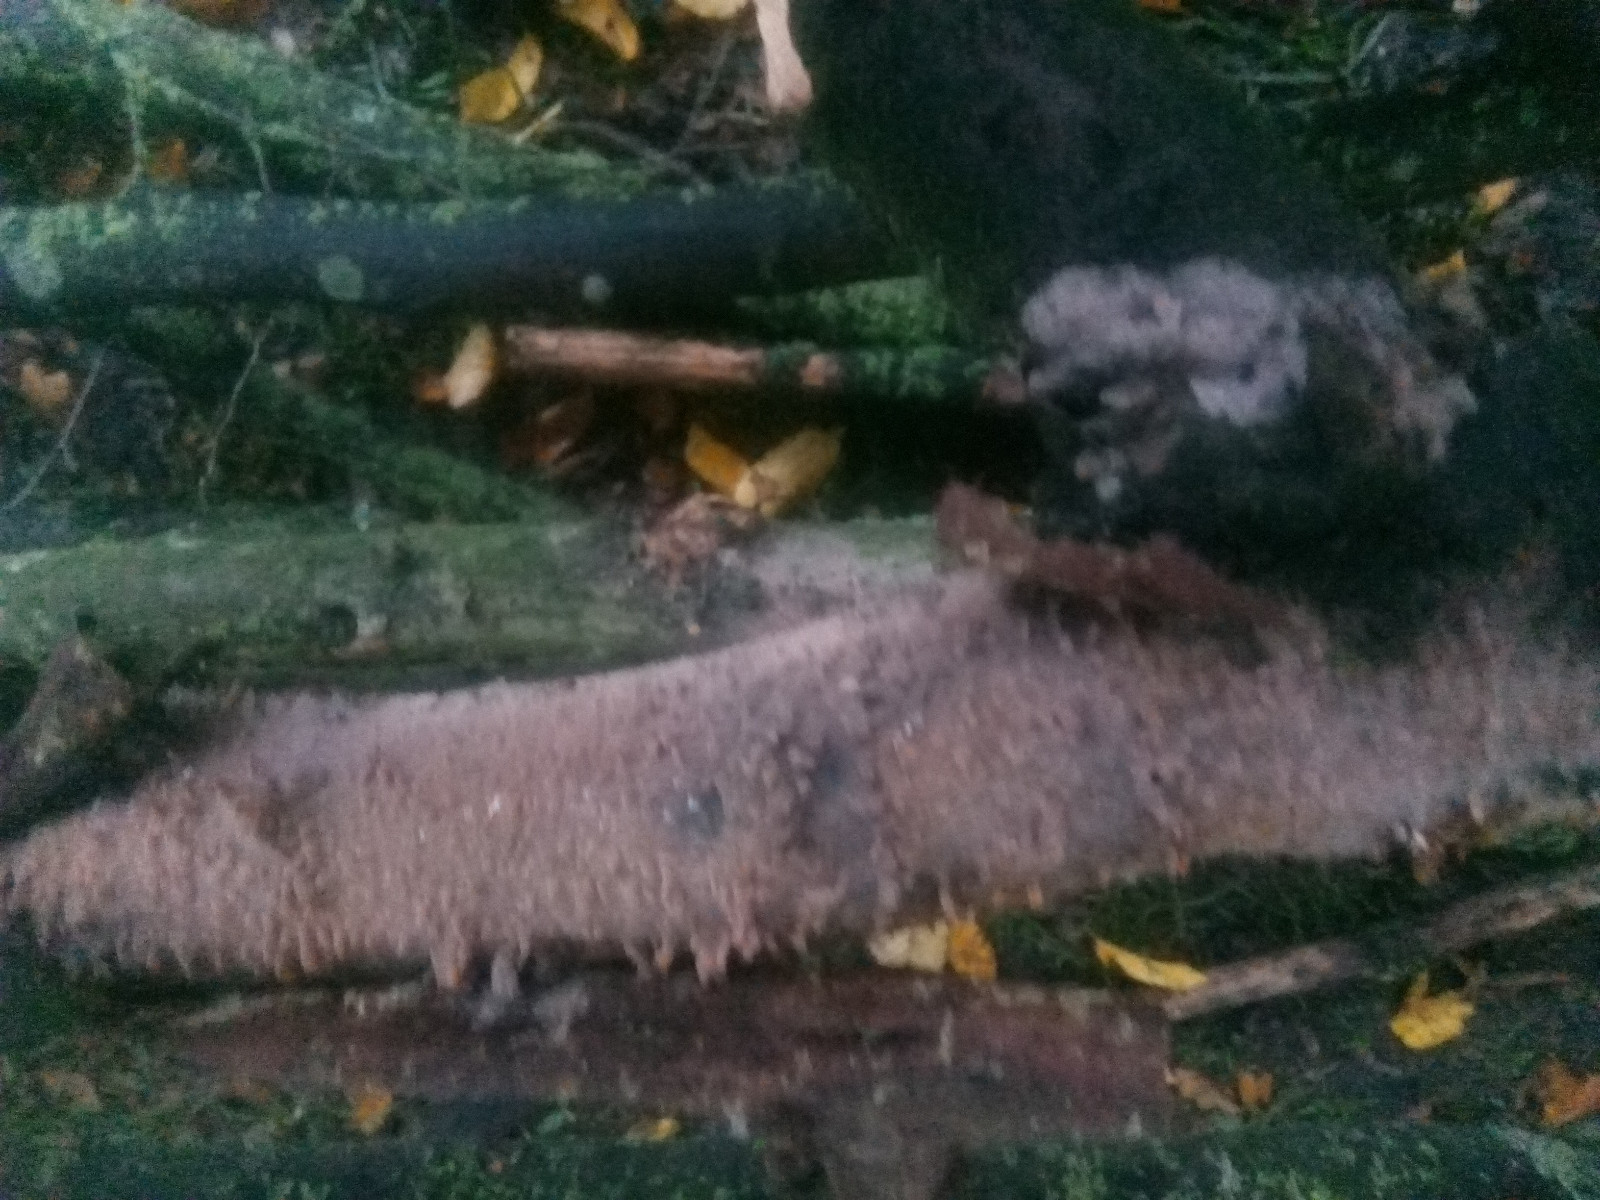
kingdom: Fungi
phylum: Basidiomycota
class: Agaricomycetes
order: Russulales
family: Peniophoraceae
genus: Peniophora
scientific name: Peniophora laeta
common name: tandet voksskind
